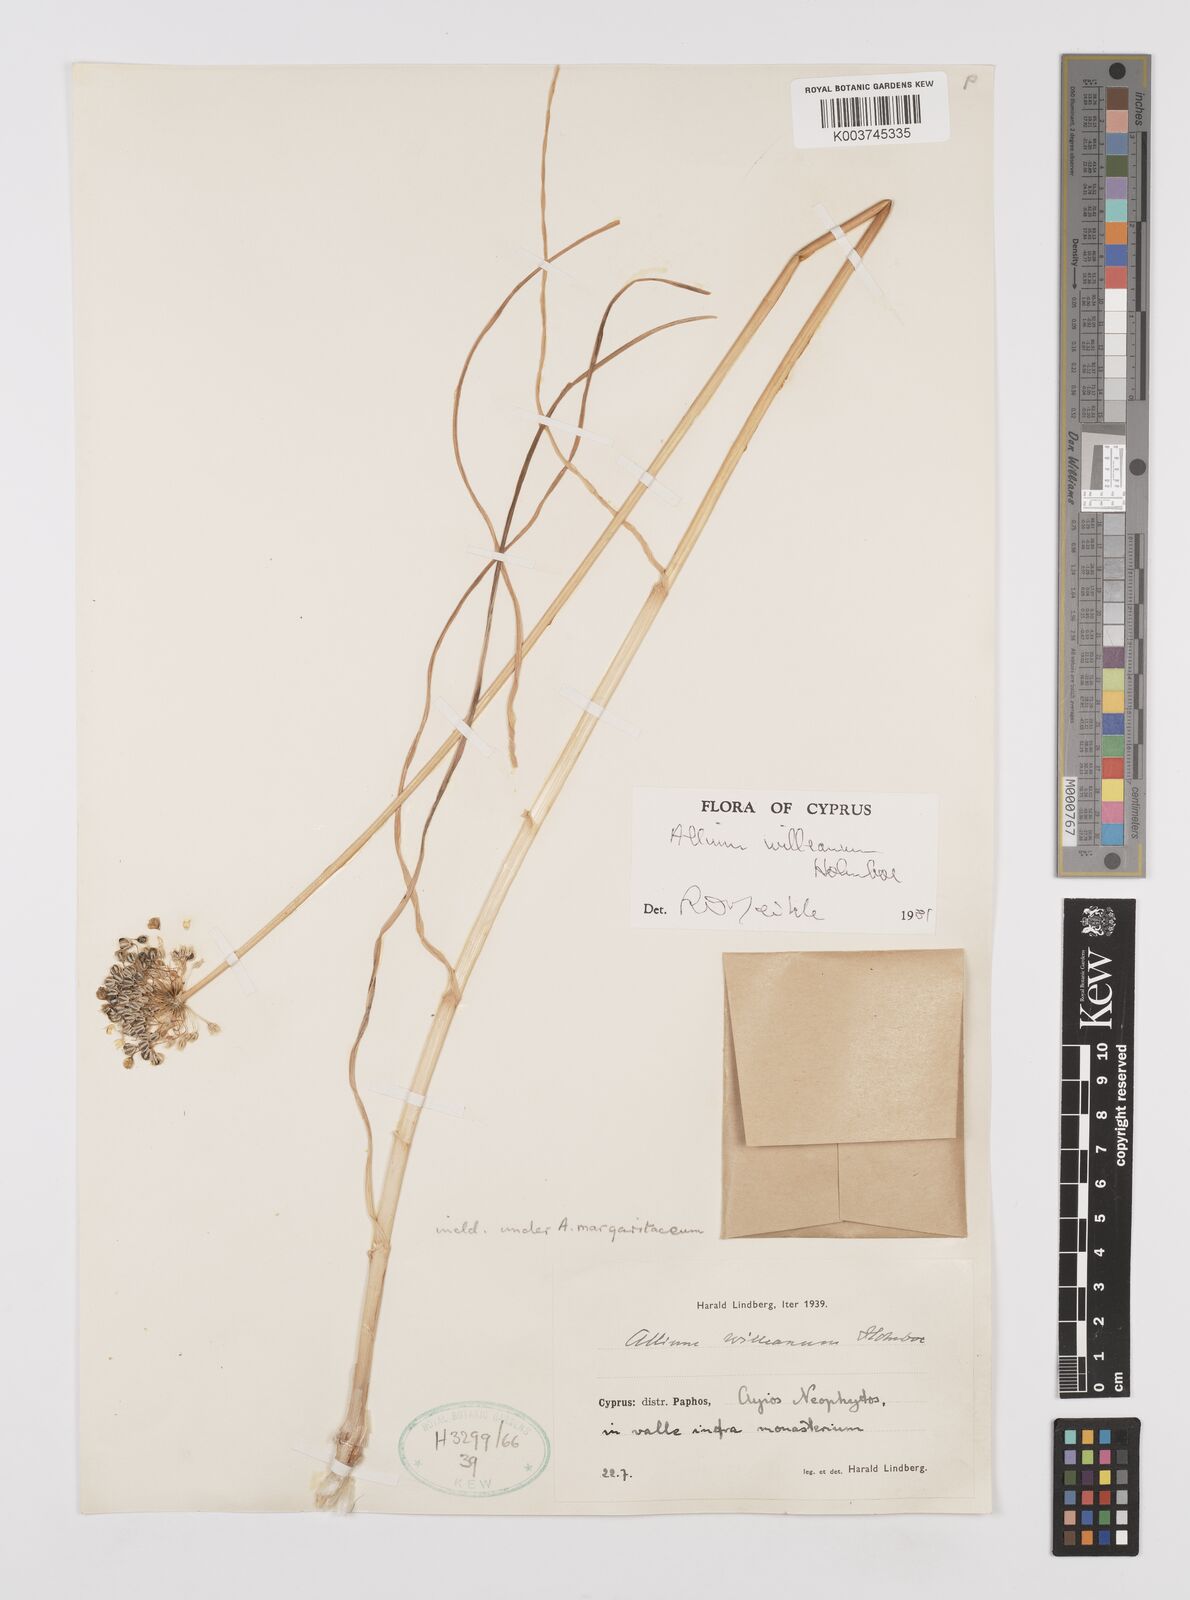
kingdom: Plantae
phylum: Tracheophyta
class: Liliopsida
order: Asparagales
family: Amaryllidaceae
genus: Allium
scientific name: Allium willeanum
